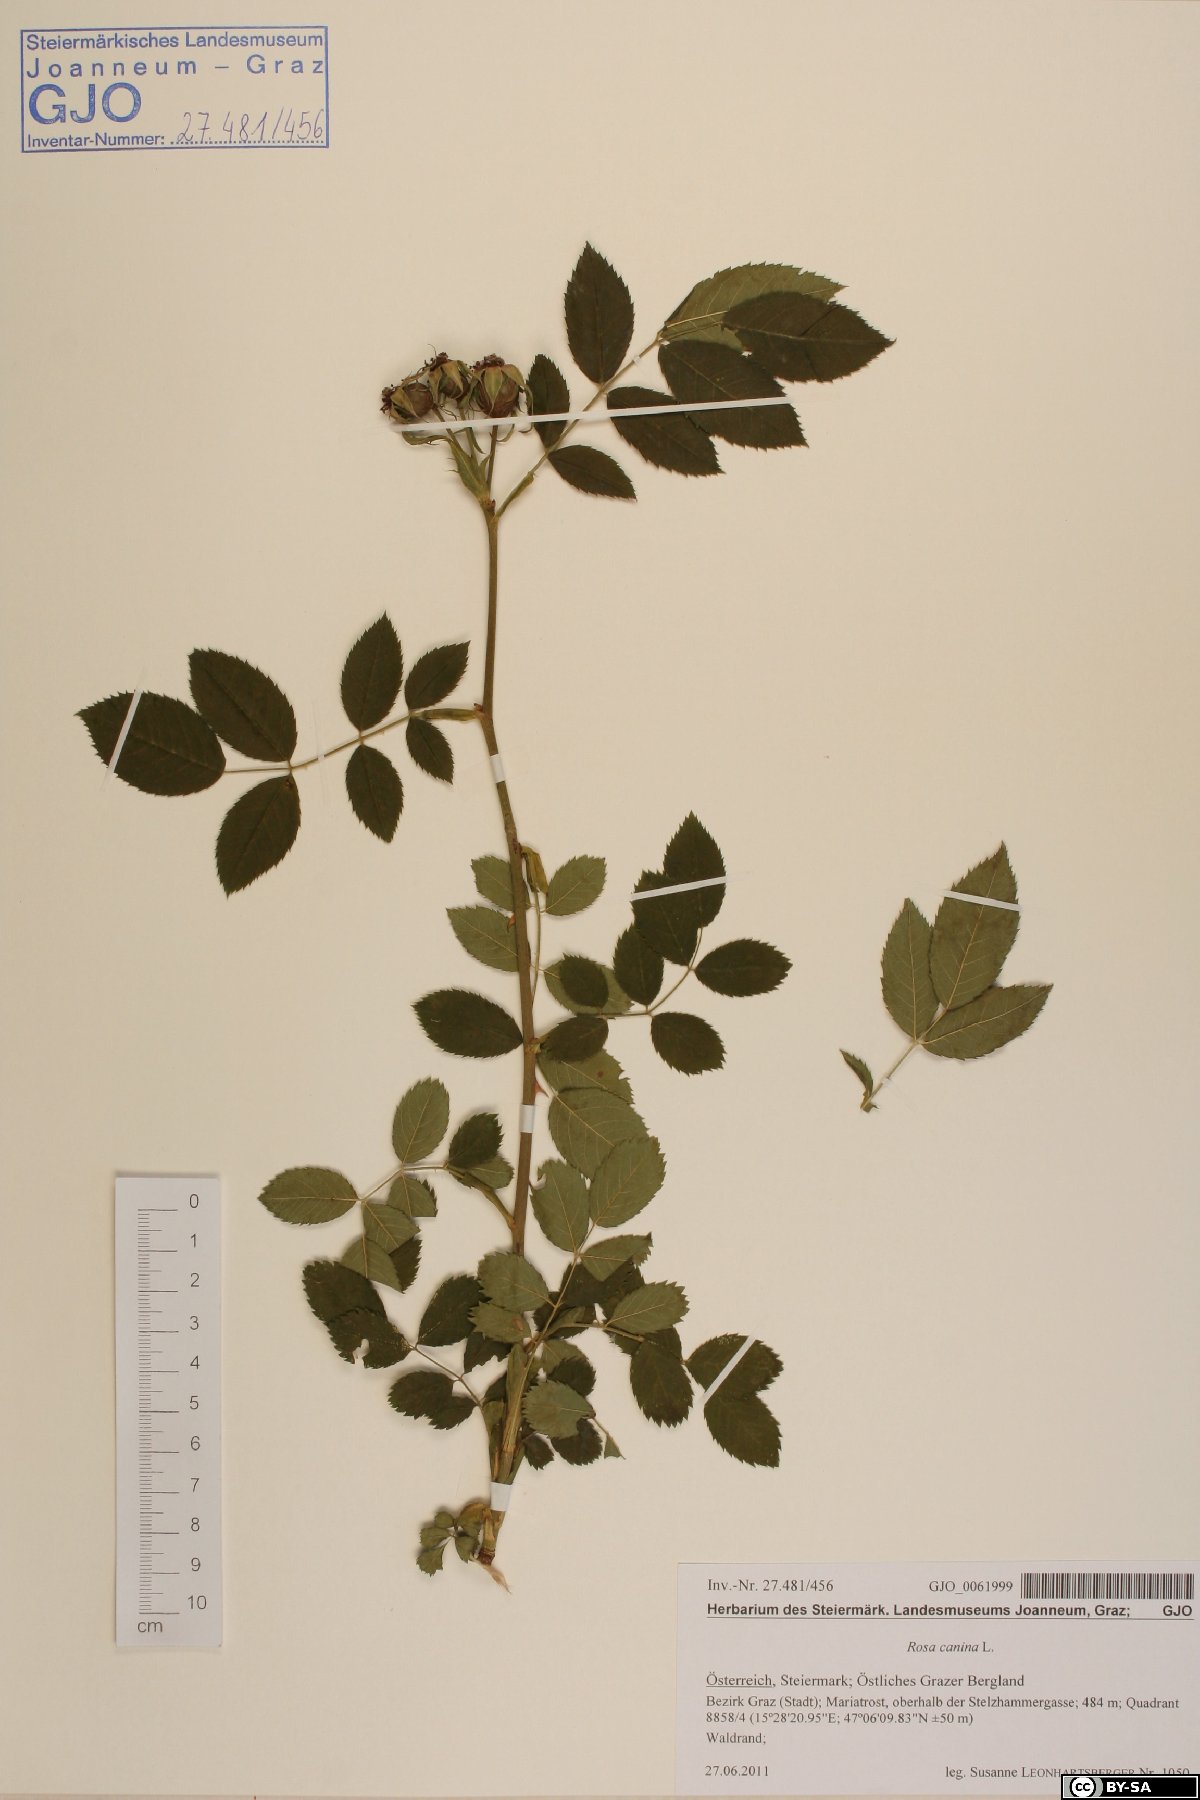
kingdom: Plantae
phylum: Tracheophyta
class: Magnoliopsida
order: Rosales
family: Rosaceae
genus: Rosa
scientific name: Rosa canina
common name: Dog rose
